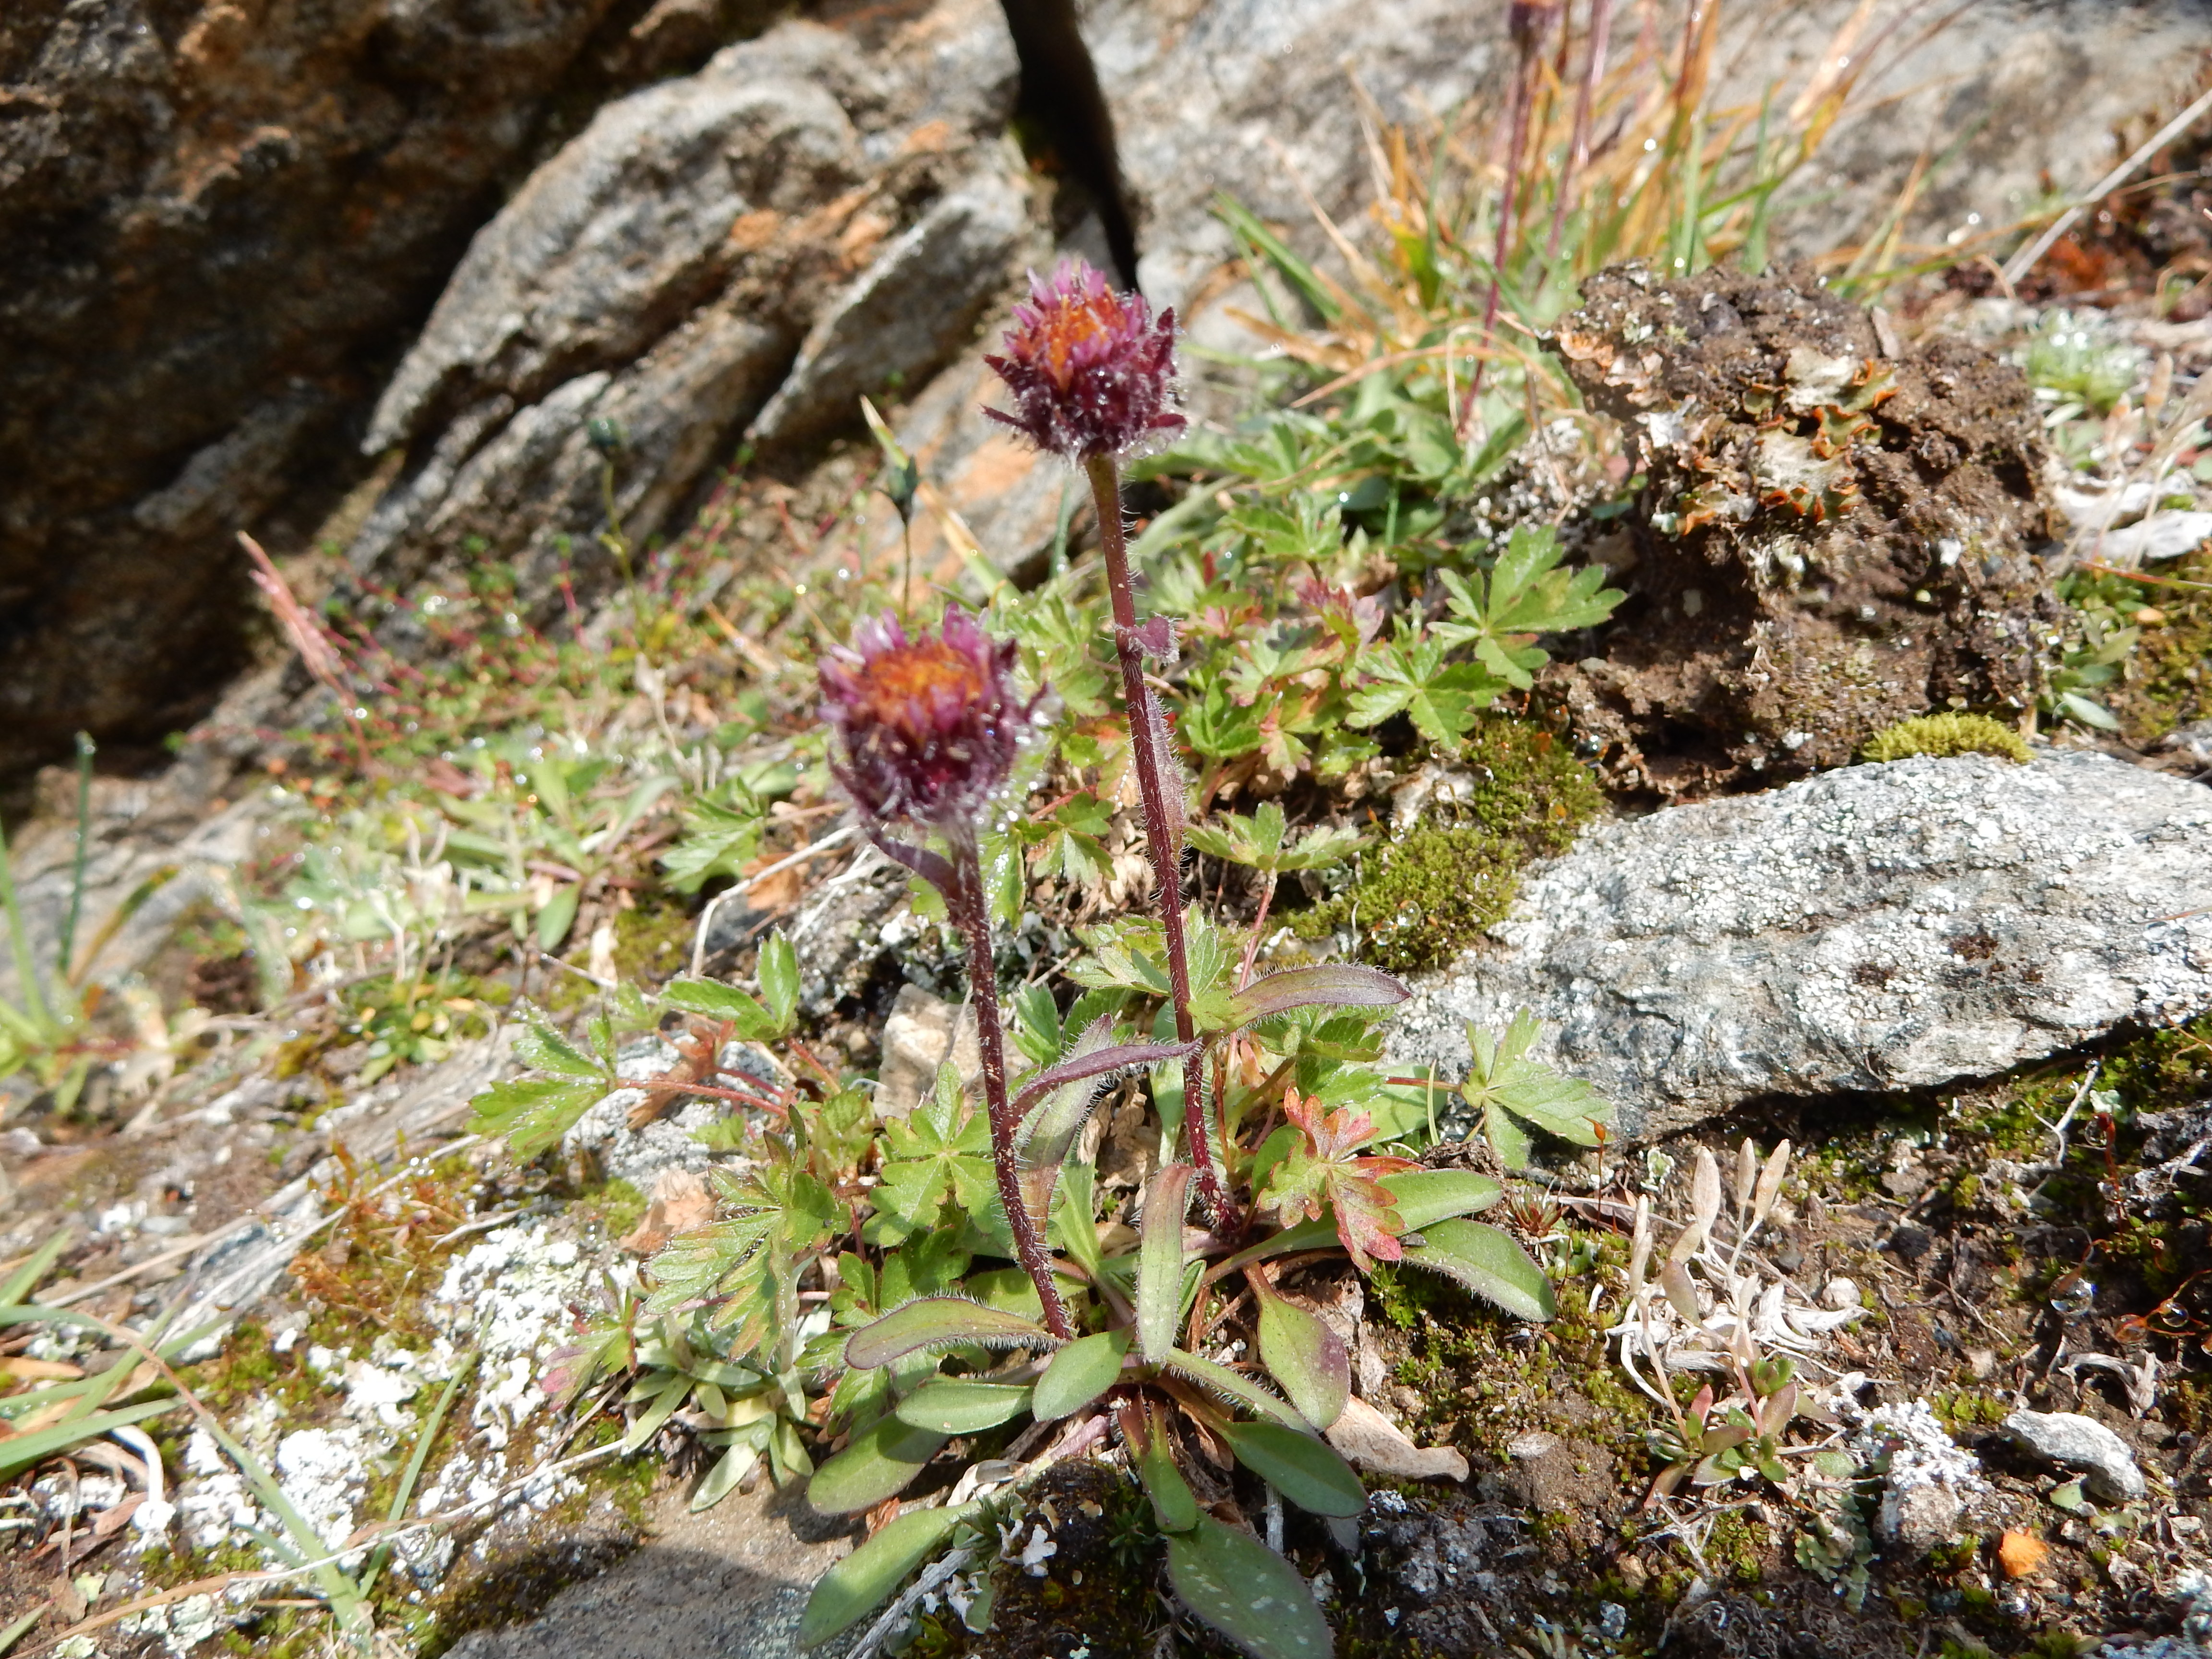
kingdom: Plantae
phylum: Tracheophyta
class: Magnoliopsida
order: Asterales
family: Asteraceae
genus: Erigeron
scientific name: Erigeron eriocephalus
